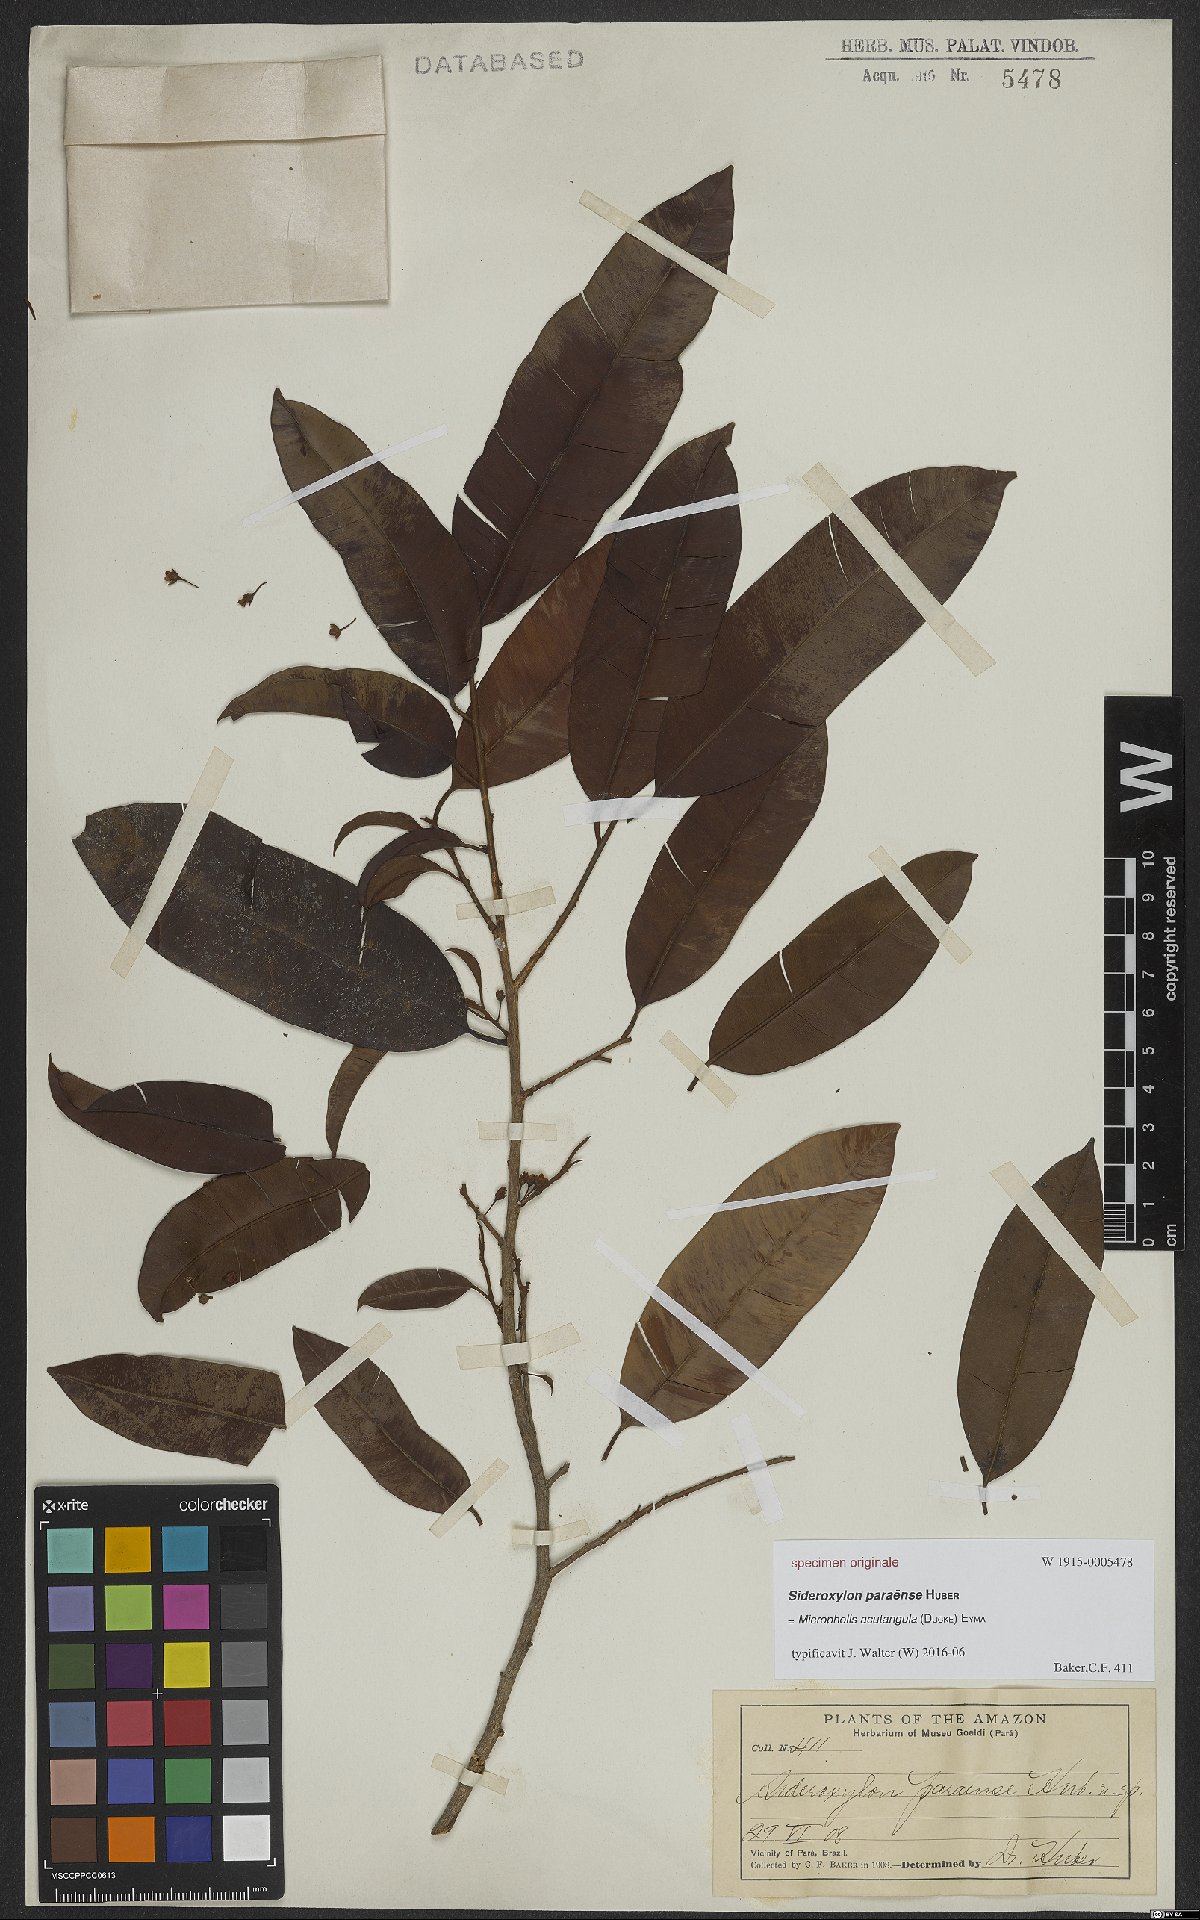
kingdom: Plantae
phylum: Tracheophyta
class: Magnoliopsida
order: Ericales
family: Sapotaceae
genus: Micropholis
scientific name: Micropholis acutangula
